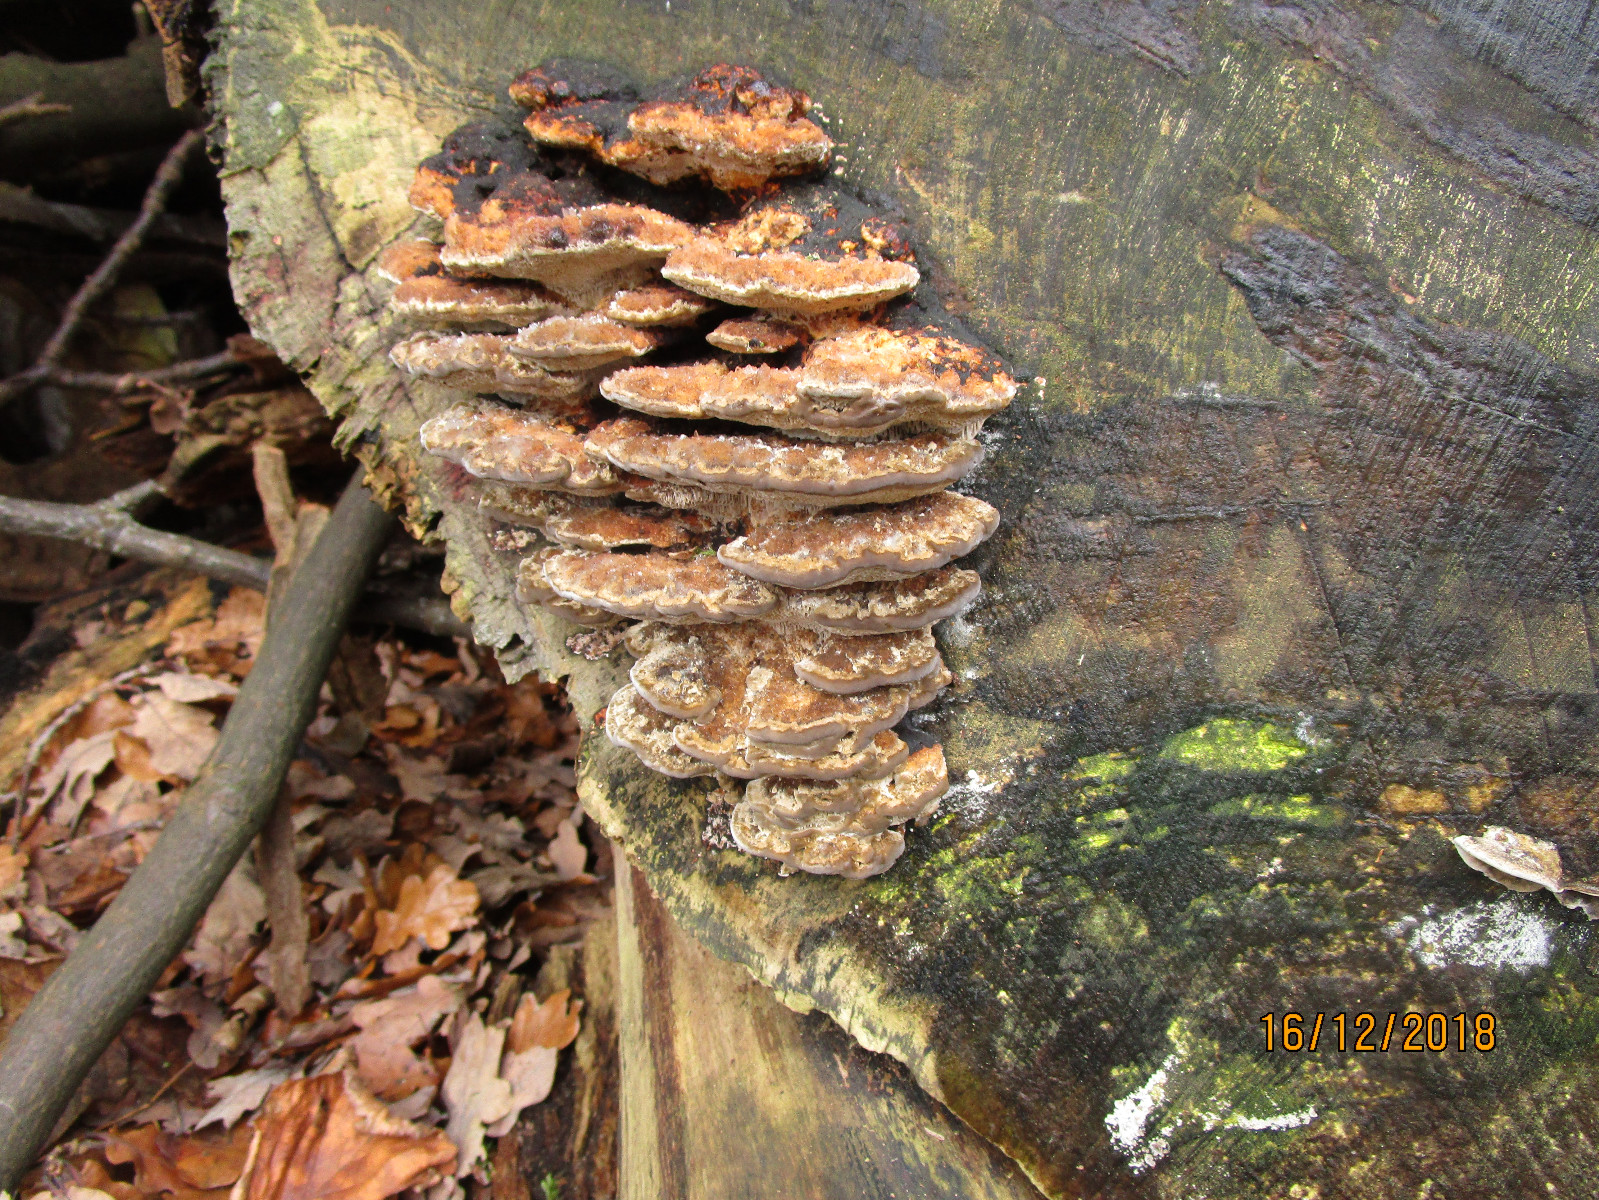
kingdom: Fungi
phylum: Basidiomycota
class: Agaricomycetes
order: Hymenochaetales
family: Hymenochaetaceae
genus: Inocutis
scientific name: Inocutis rheades
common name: ræve-spejlporesvamp
